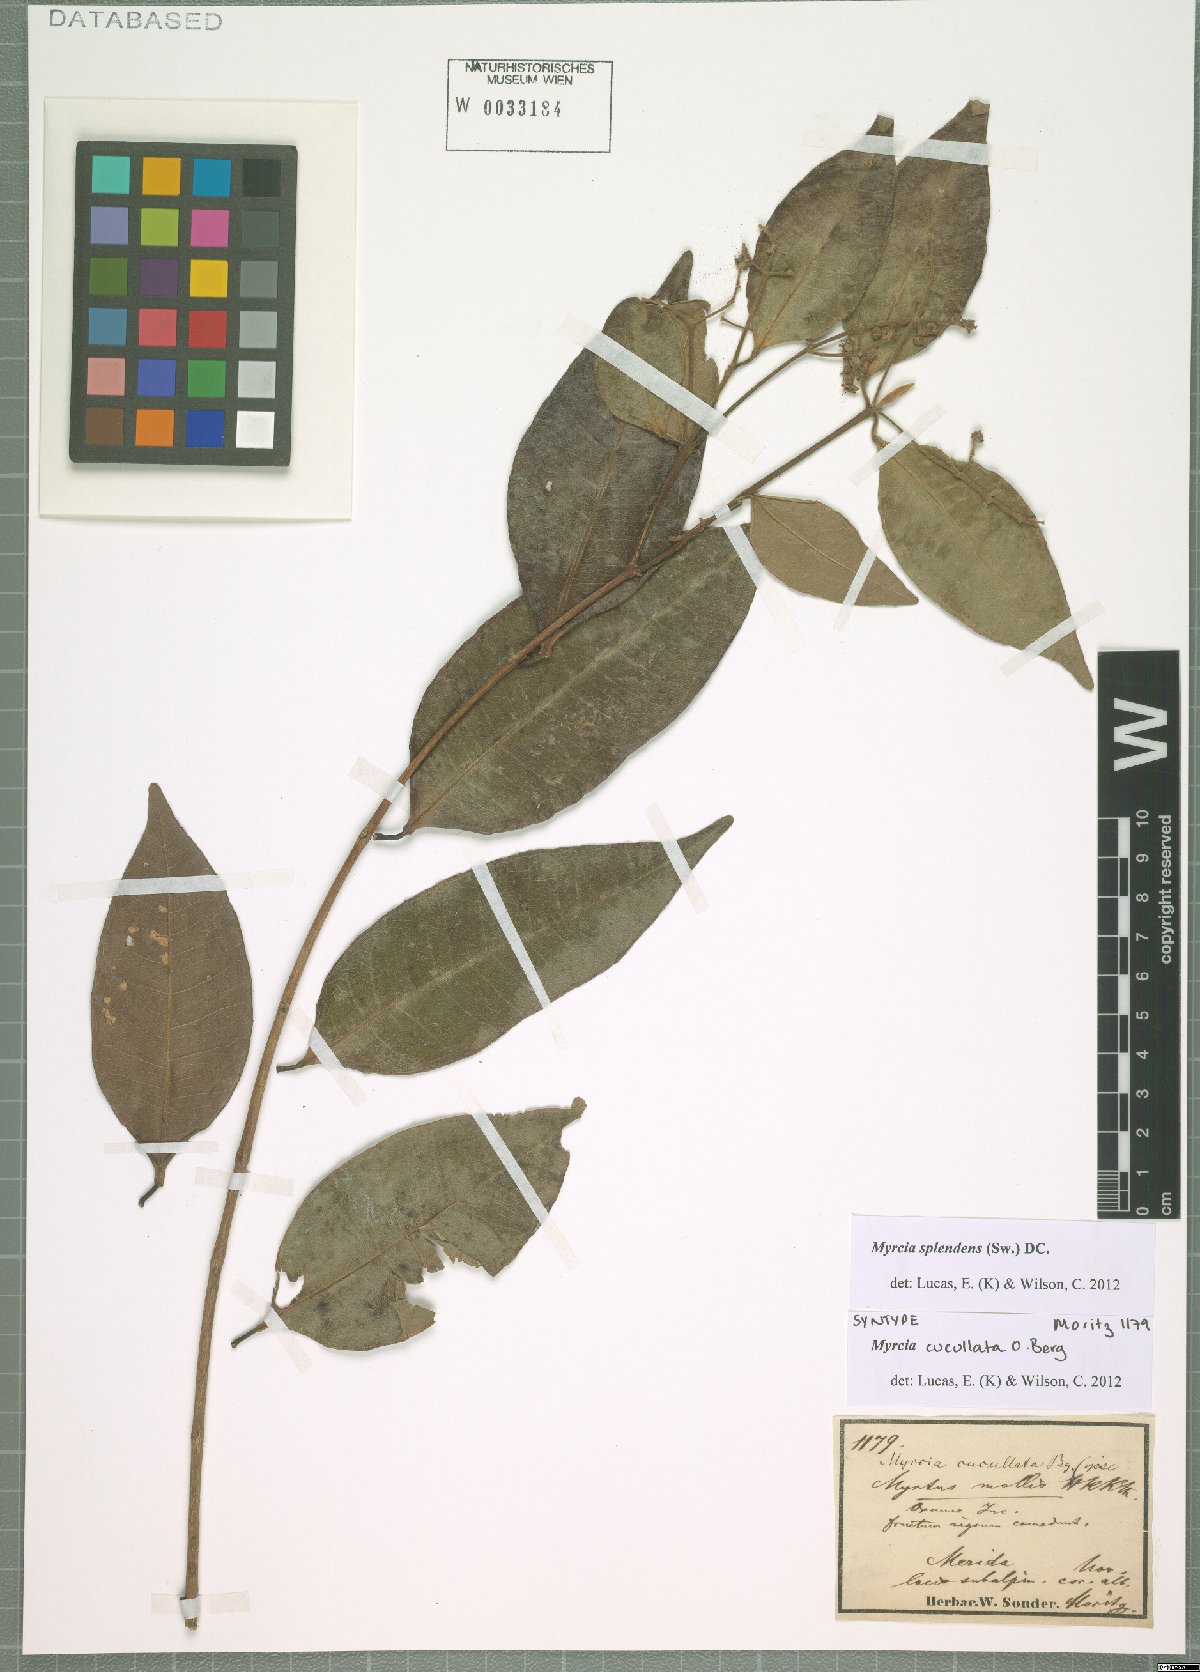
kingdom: Plantae
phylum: Tracheophyta
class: Magnoliopsida
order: Myrtales
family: Myrtaceae
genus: Myrcia
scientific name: Myrcia splendens
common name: Surinam cherry
